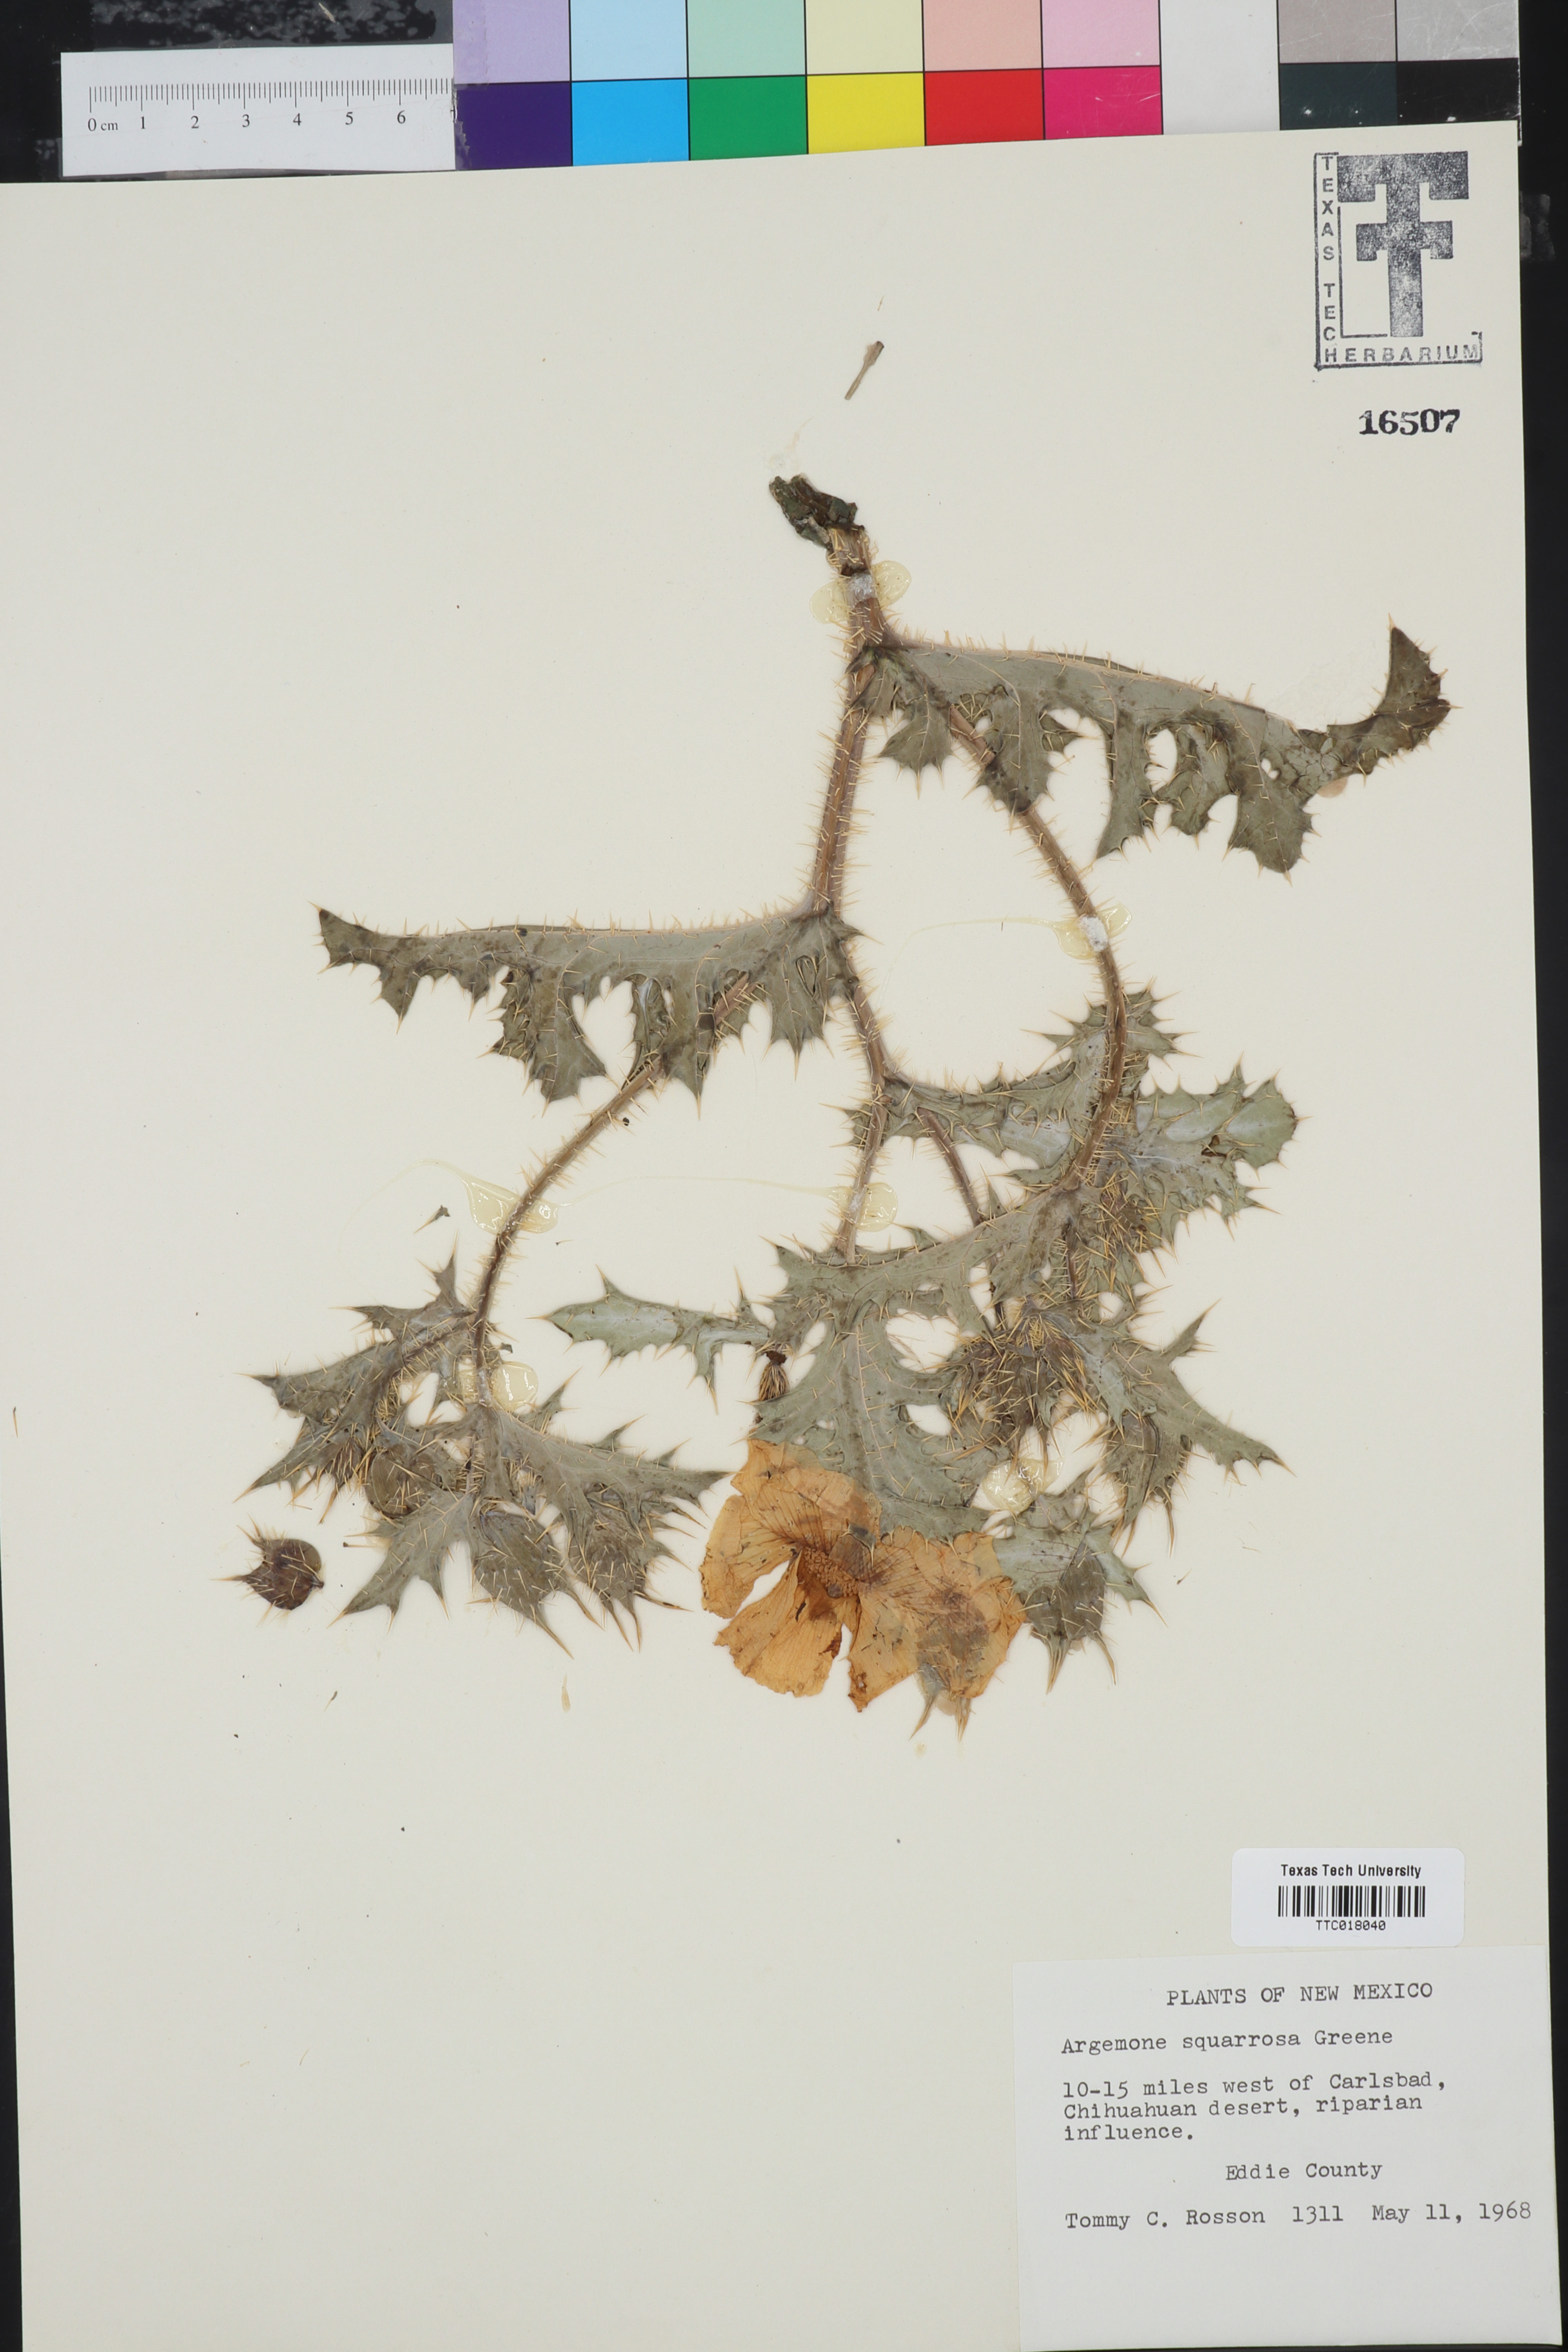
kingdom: Plantae
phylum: Tracheophyta
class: Magnoliopsida
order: Ranunculales
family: Papaveraceae
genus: Argemone
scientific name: Argemone squarrosa
